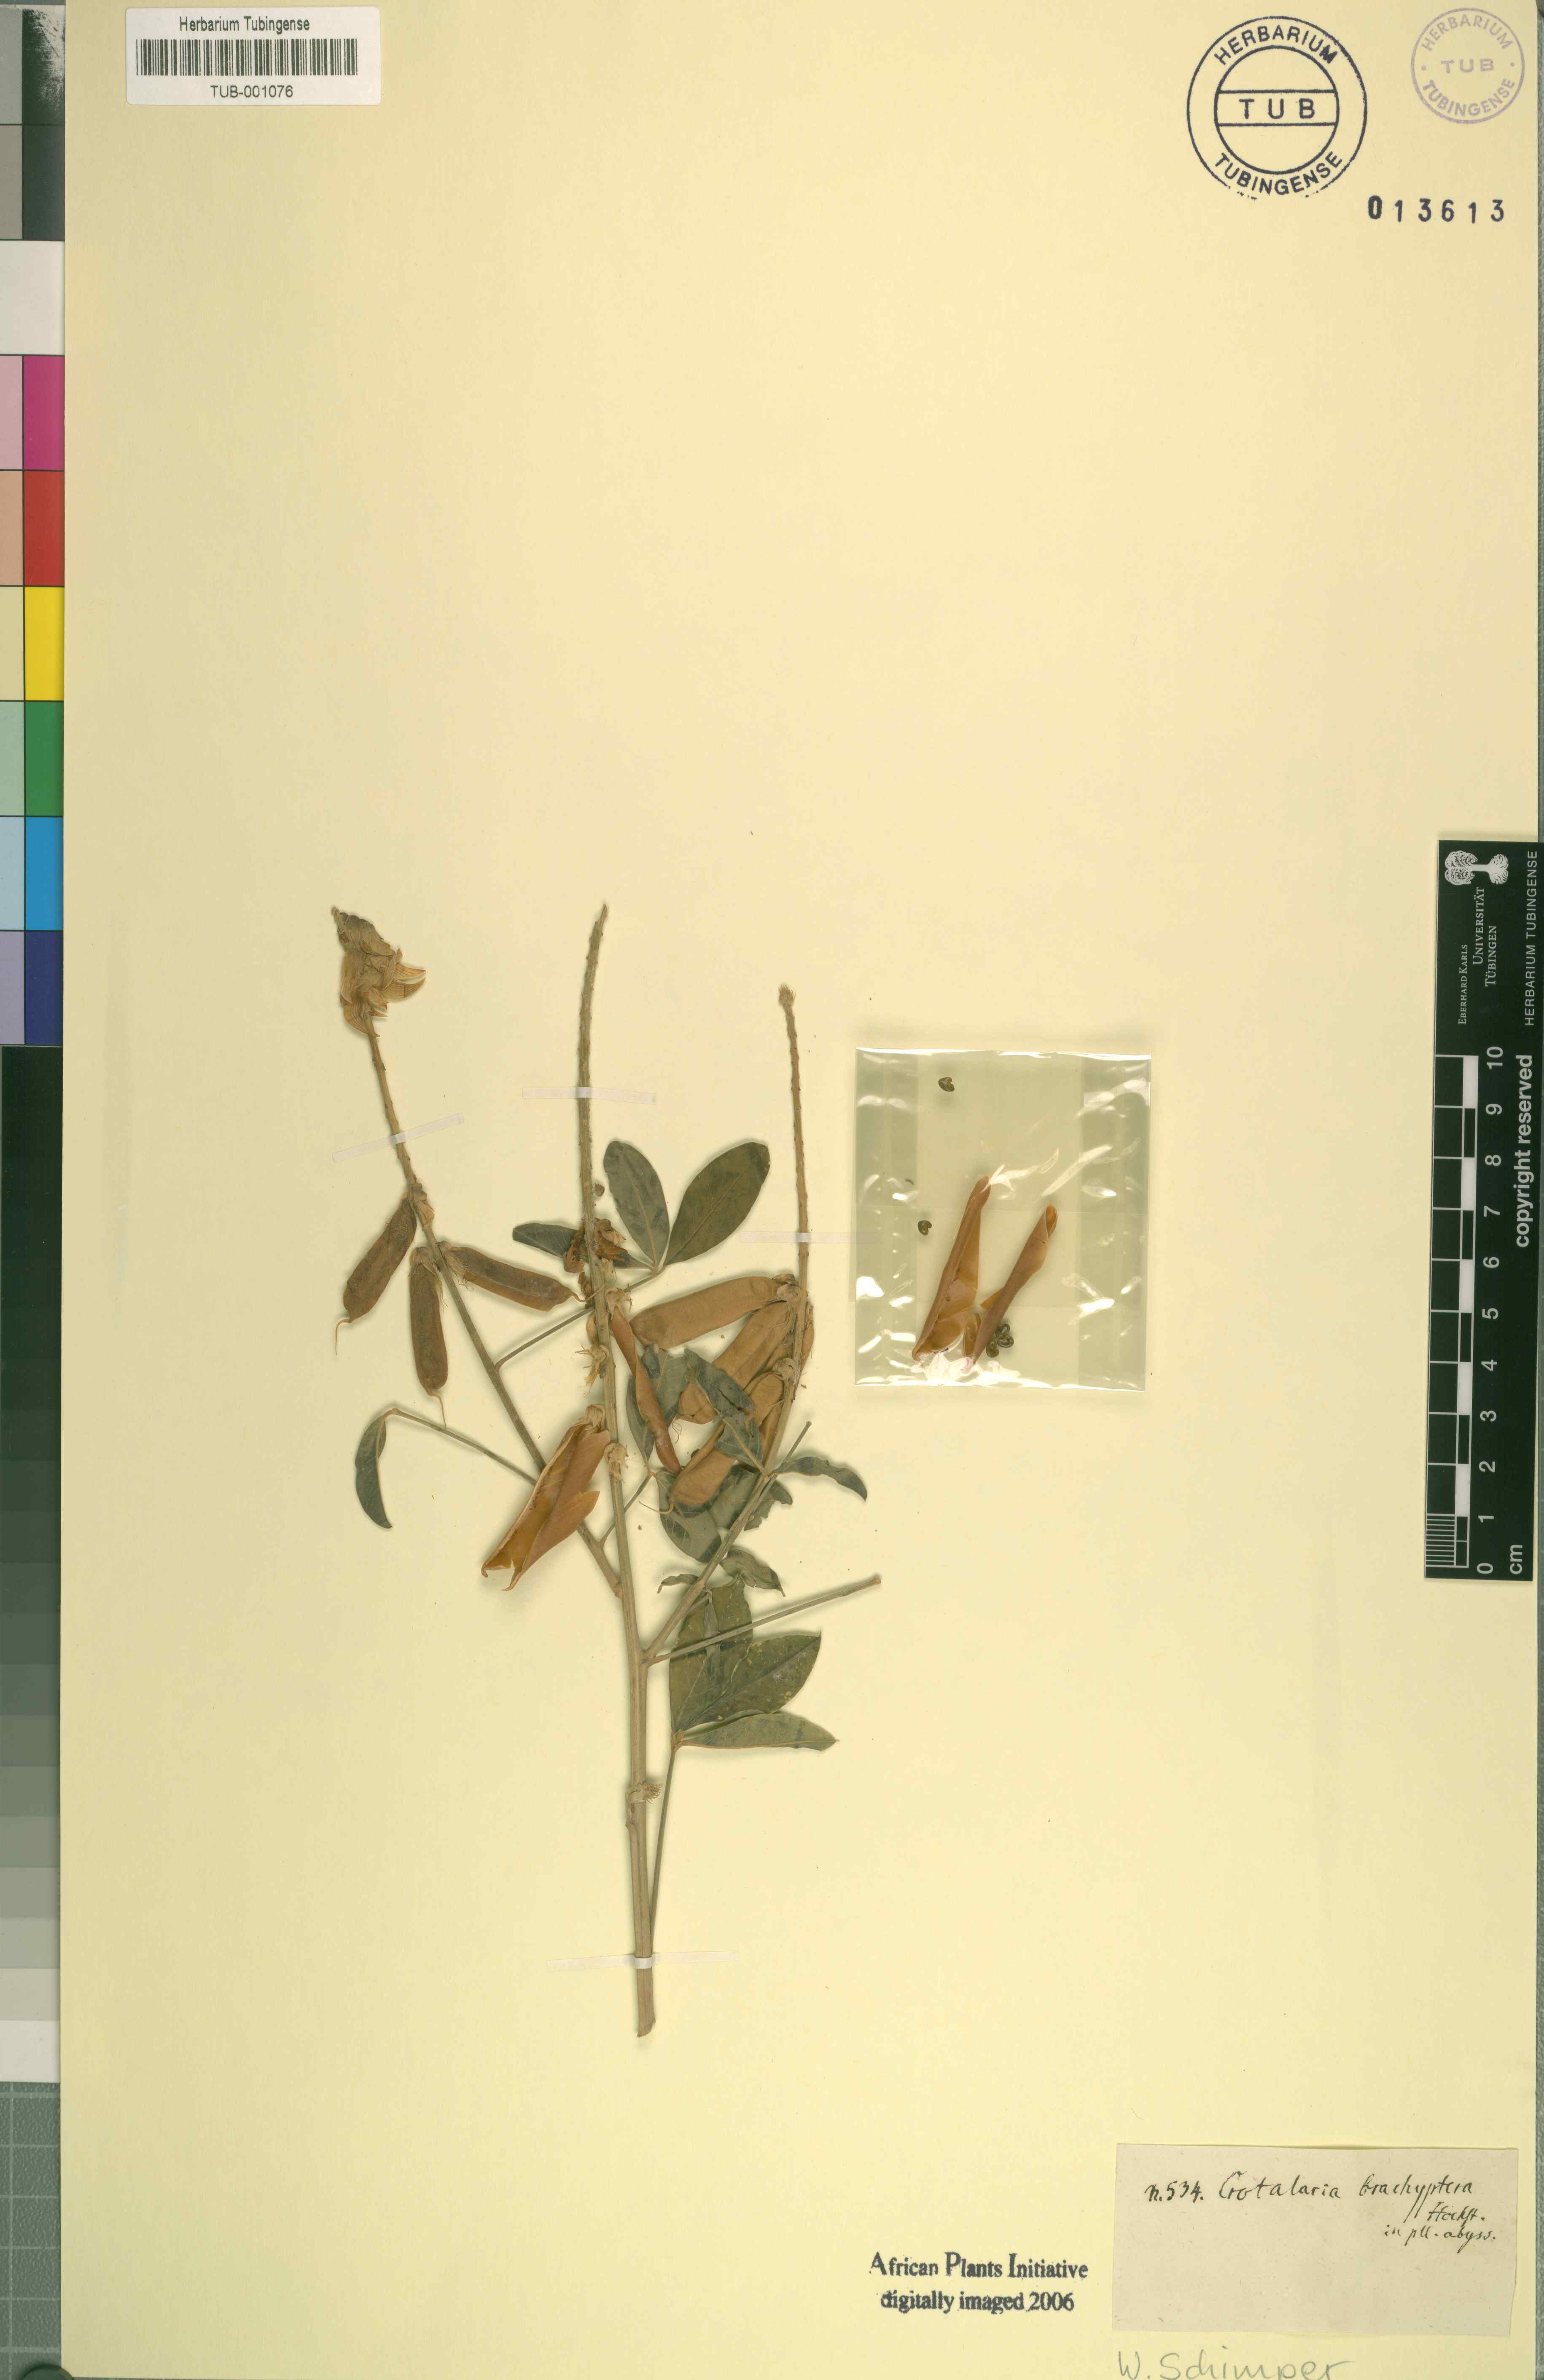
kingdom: Plantae
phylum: Tracheophyta
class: Magnoliopsida
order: Fabales
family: Fabaceae
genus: Crotalaria
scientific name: Crotalaria
